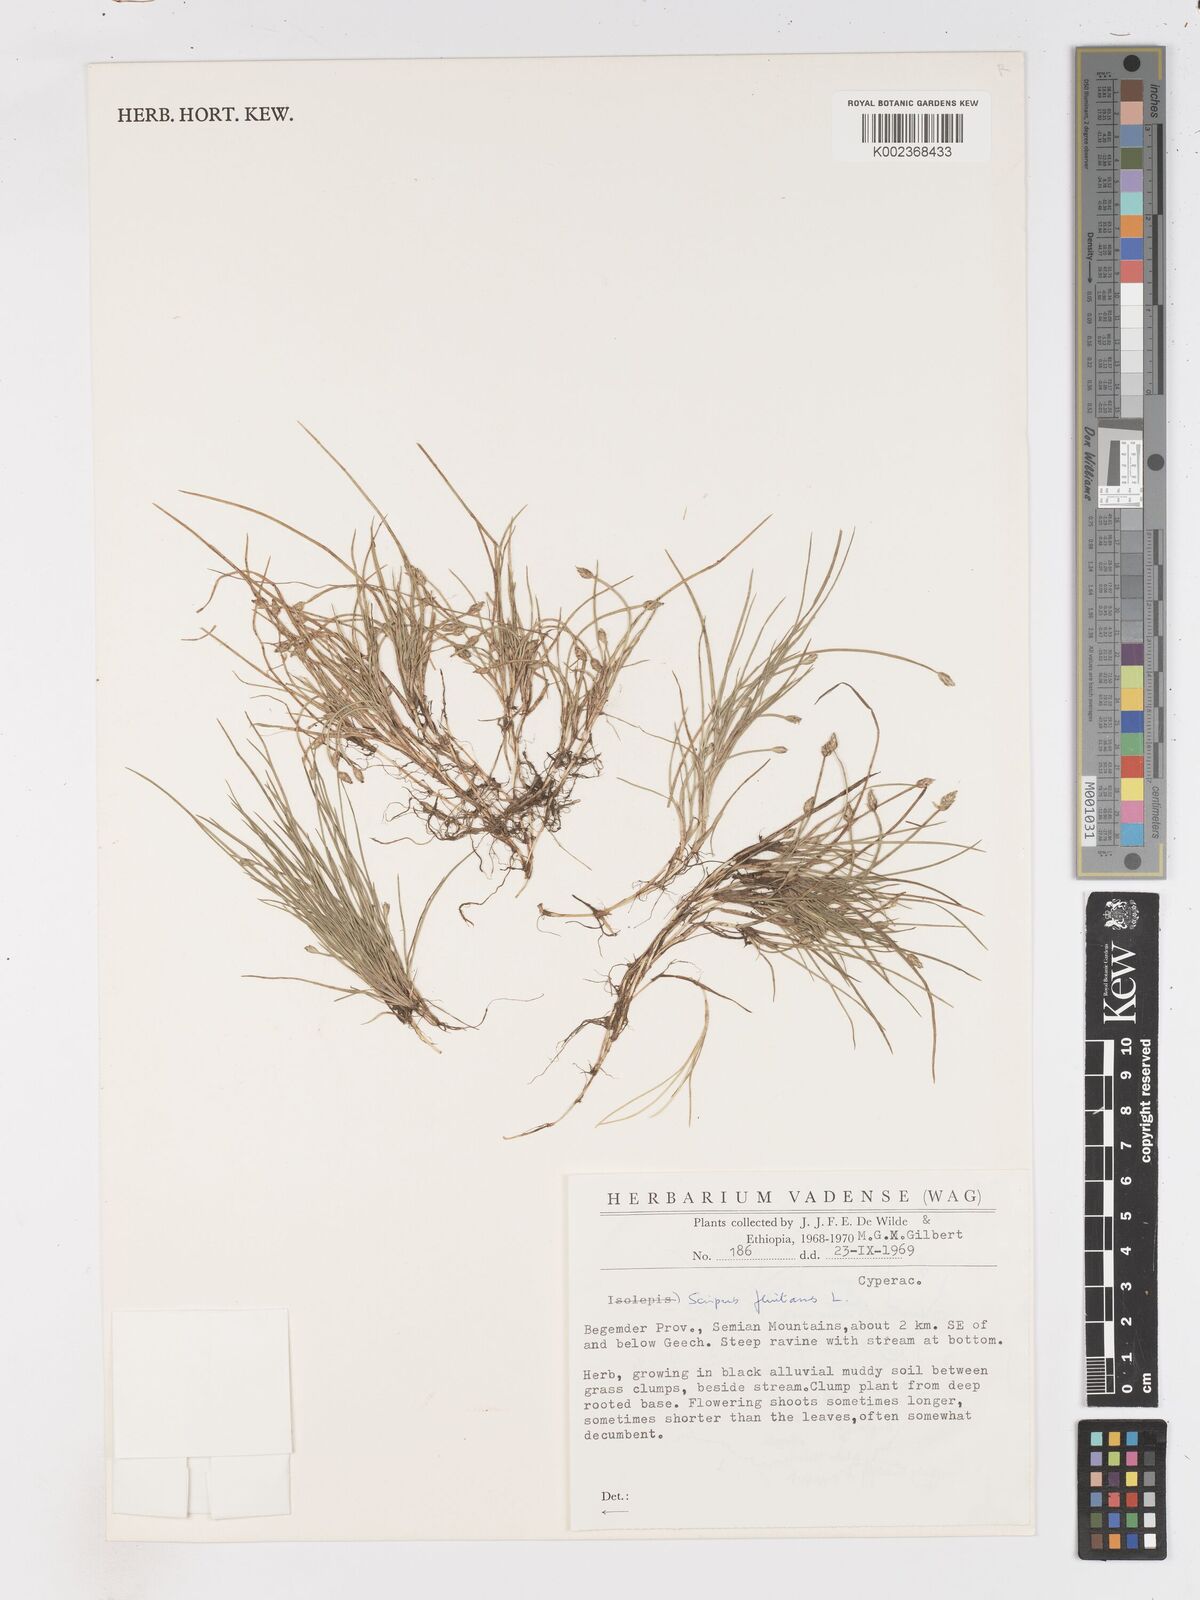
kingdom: Plantae
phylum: Tracheophyta
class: Liliopsida
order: Poales
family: Cyperaceae
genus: Isolepis
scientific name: Isolepis fluitans
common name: Floating club-rush
